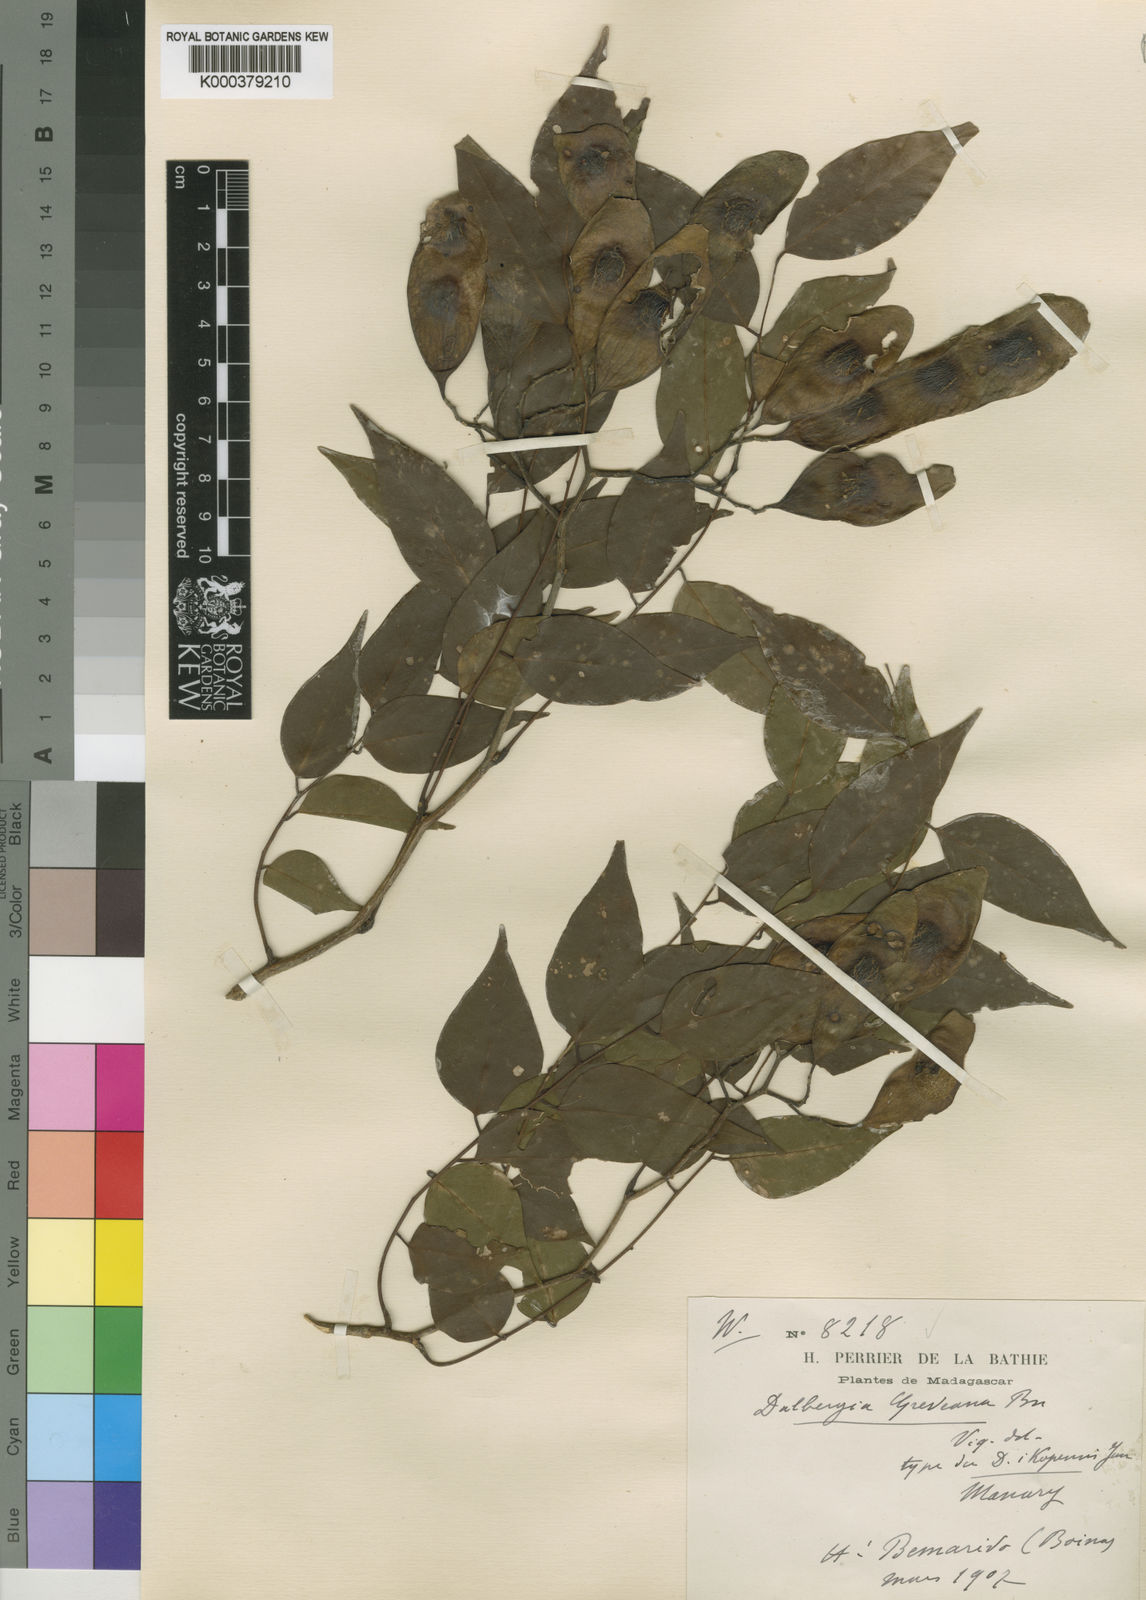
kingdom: Plantae
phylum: Tracheophyta
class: Magnoliopsida
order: Fabales
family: Fabaceae
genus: Dalbergia
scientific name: Dalbergia greveana
